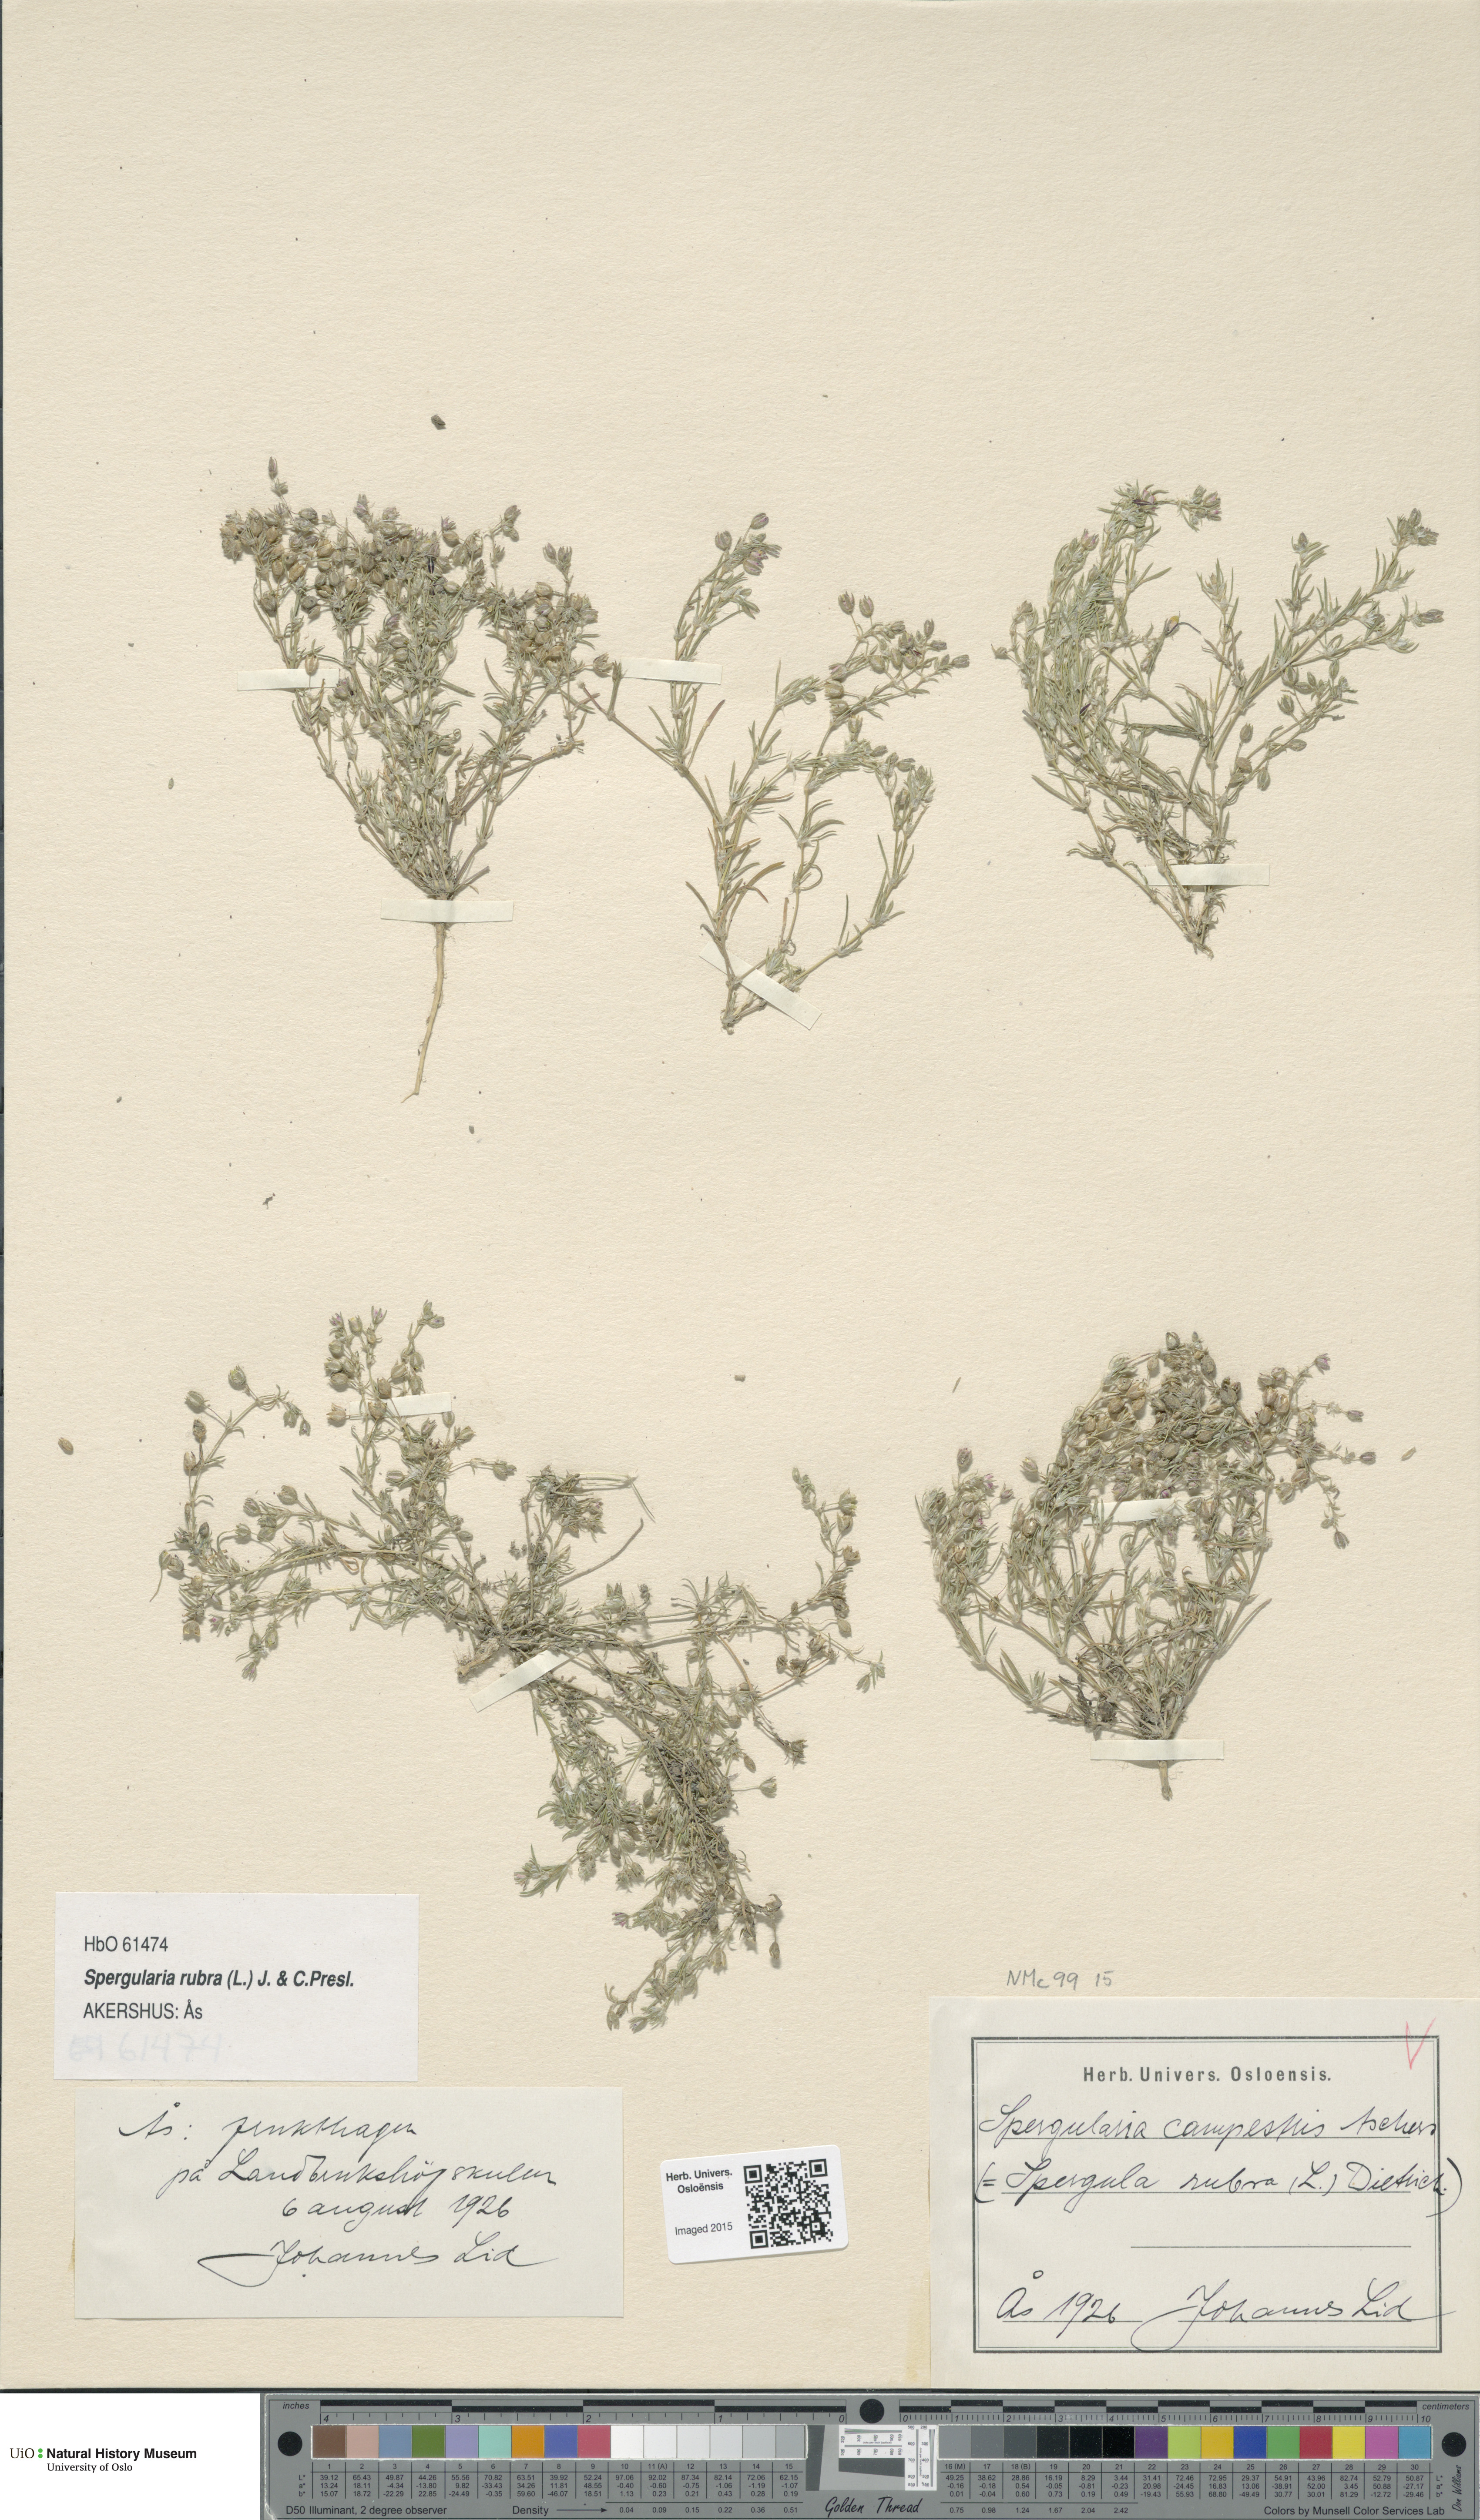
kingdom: Plantae
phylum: Tracheophyta
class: Magnoliopsida
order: Caryophyllales
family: Caryophyllaceae
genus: Spergularia
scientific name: Spergularia rubra
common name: Red sand-spurrey
